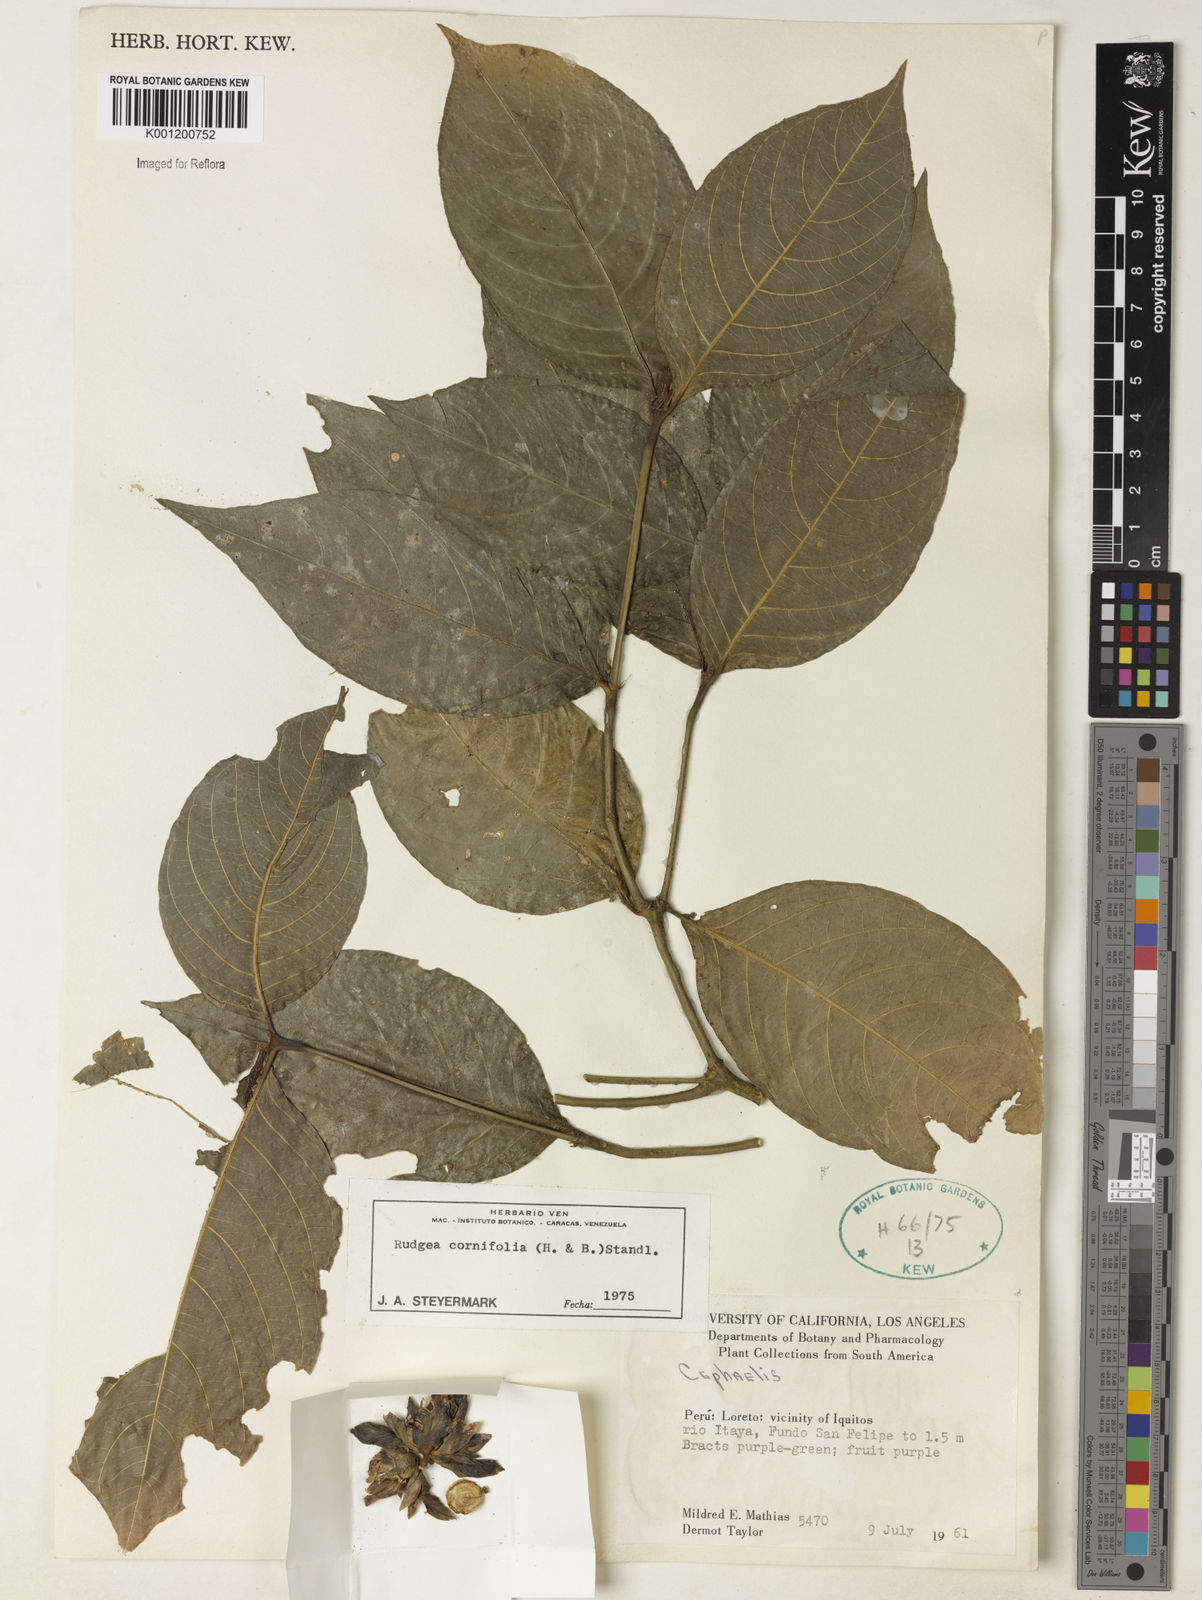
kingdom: Plantae
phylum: Tracheophyta
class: Magnoliopsida
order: Gentianales
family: Rubiaceae
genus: Psychotria
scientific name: Psychotria
